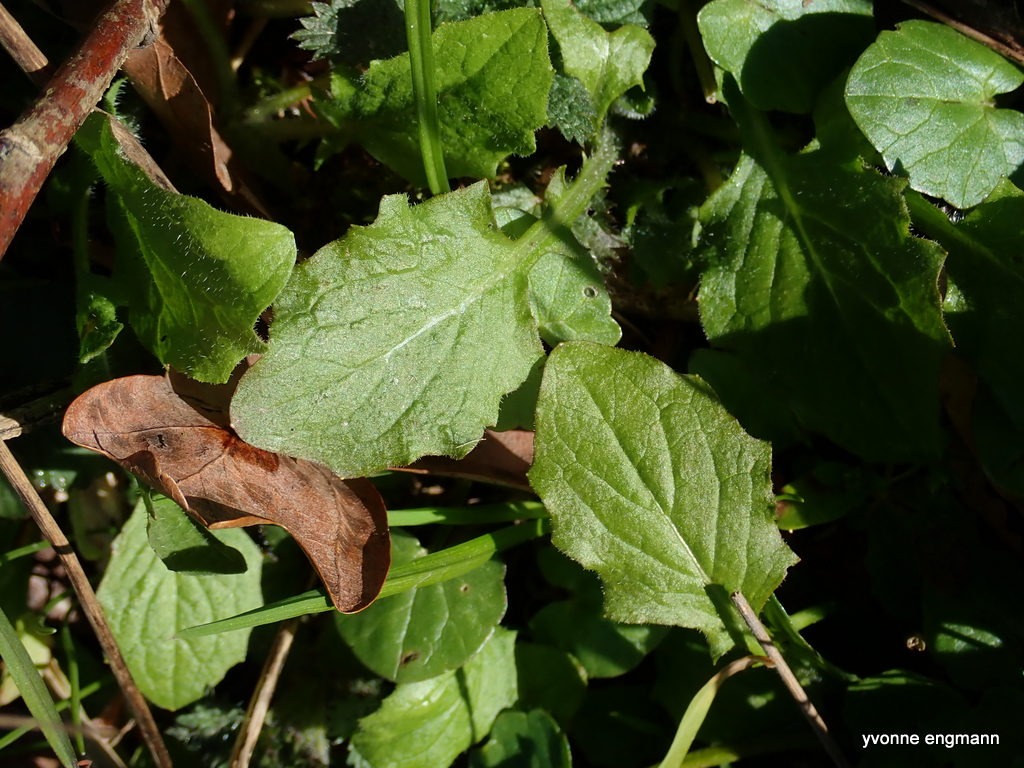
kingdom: Plantae
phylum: Tracheophyta
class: Magnoliopsida
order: Asterales
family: Asteraceae
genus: Lapsana
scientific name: Lapsana communis
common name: Haremad
